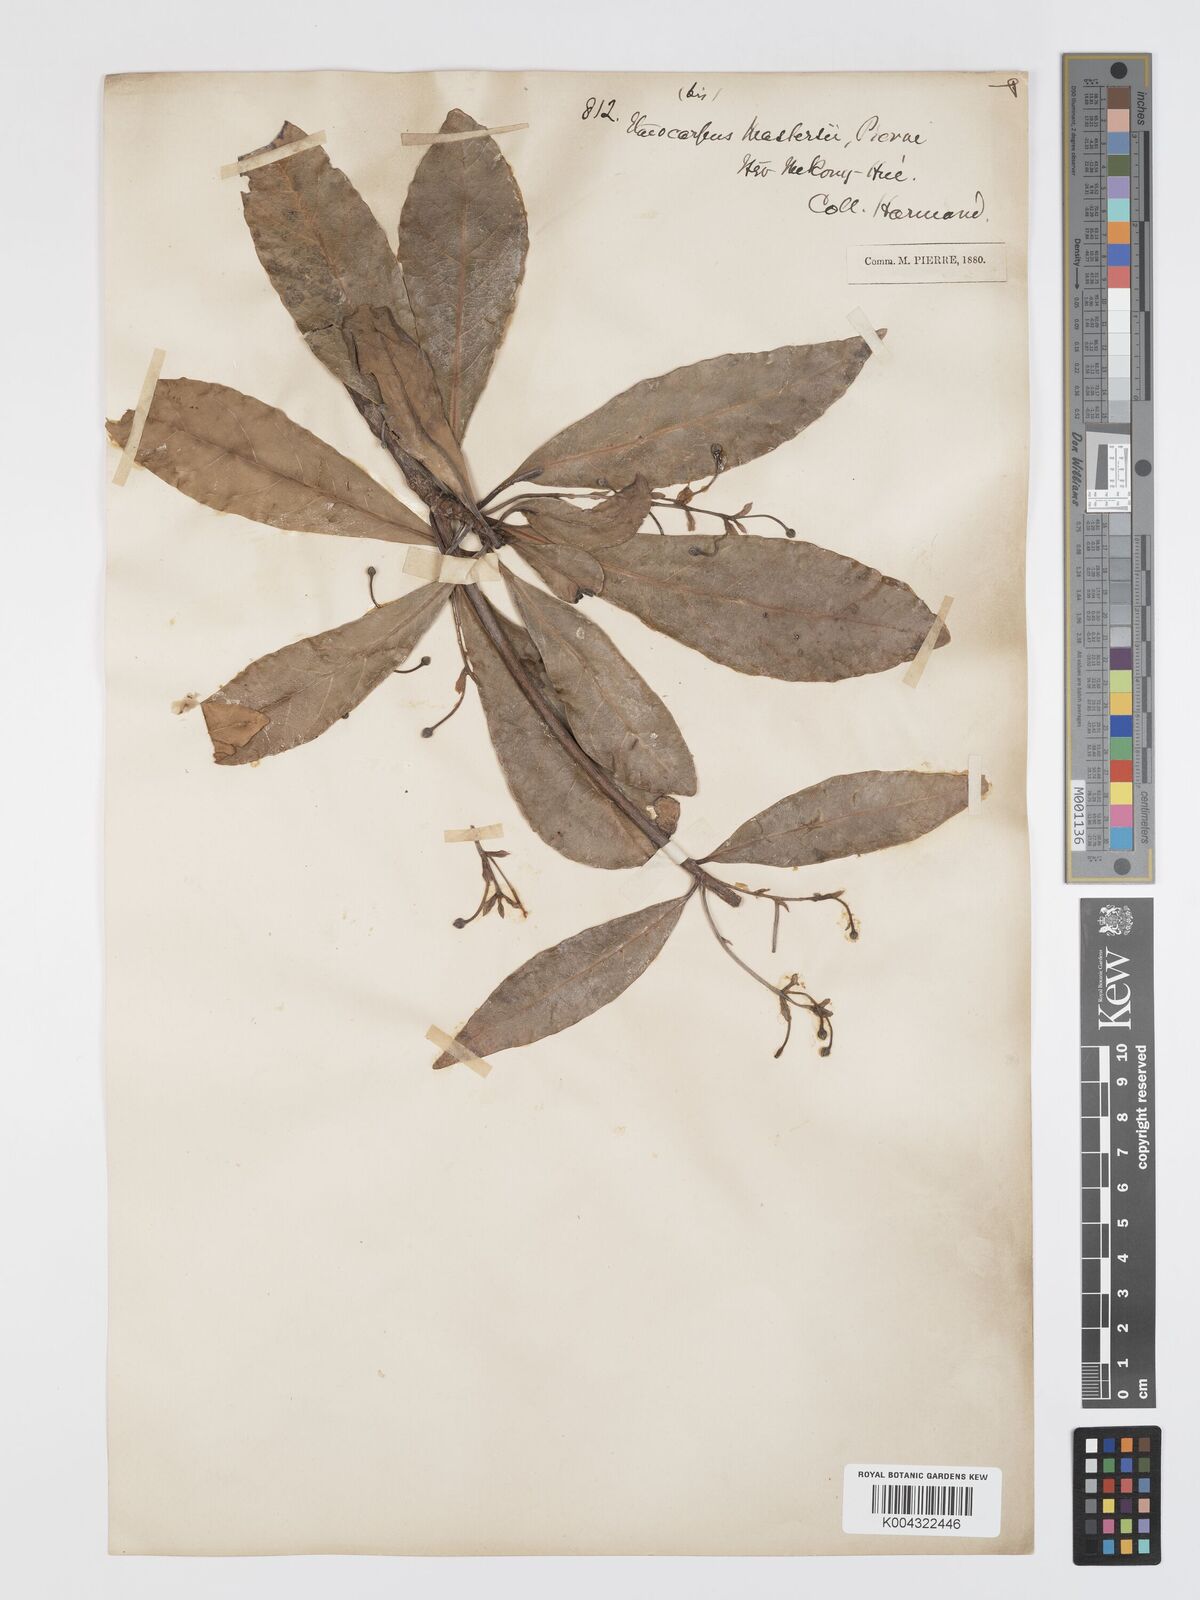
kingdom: Plantae
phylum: Tracheophyta
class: Magnoliopsida
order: Oxalidales
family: Elaeocarpaceae
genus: Elaeocarpus
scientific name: Elaeocarpus rivularis
